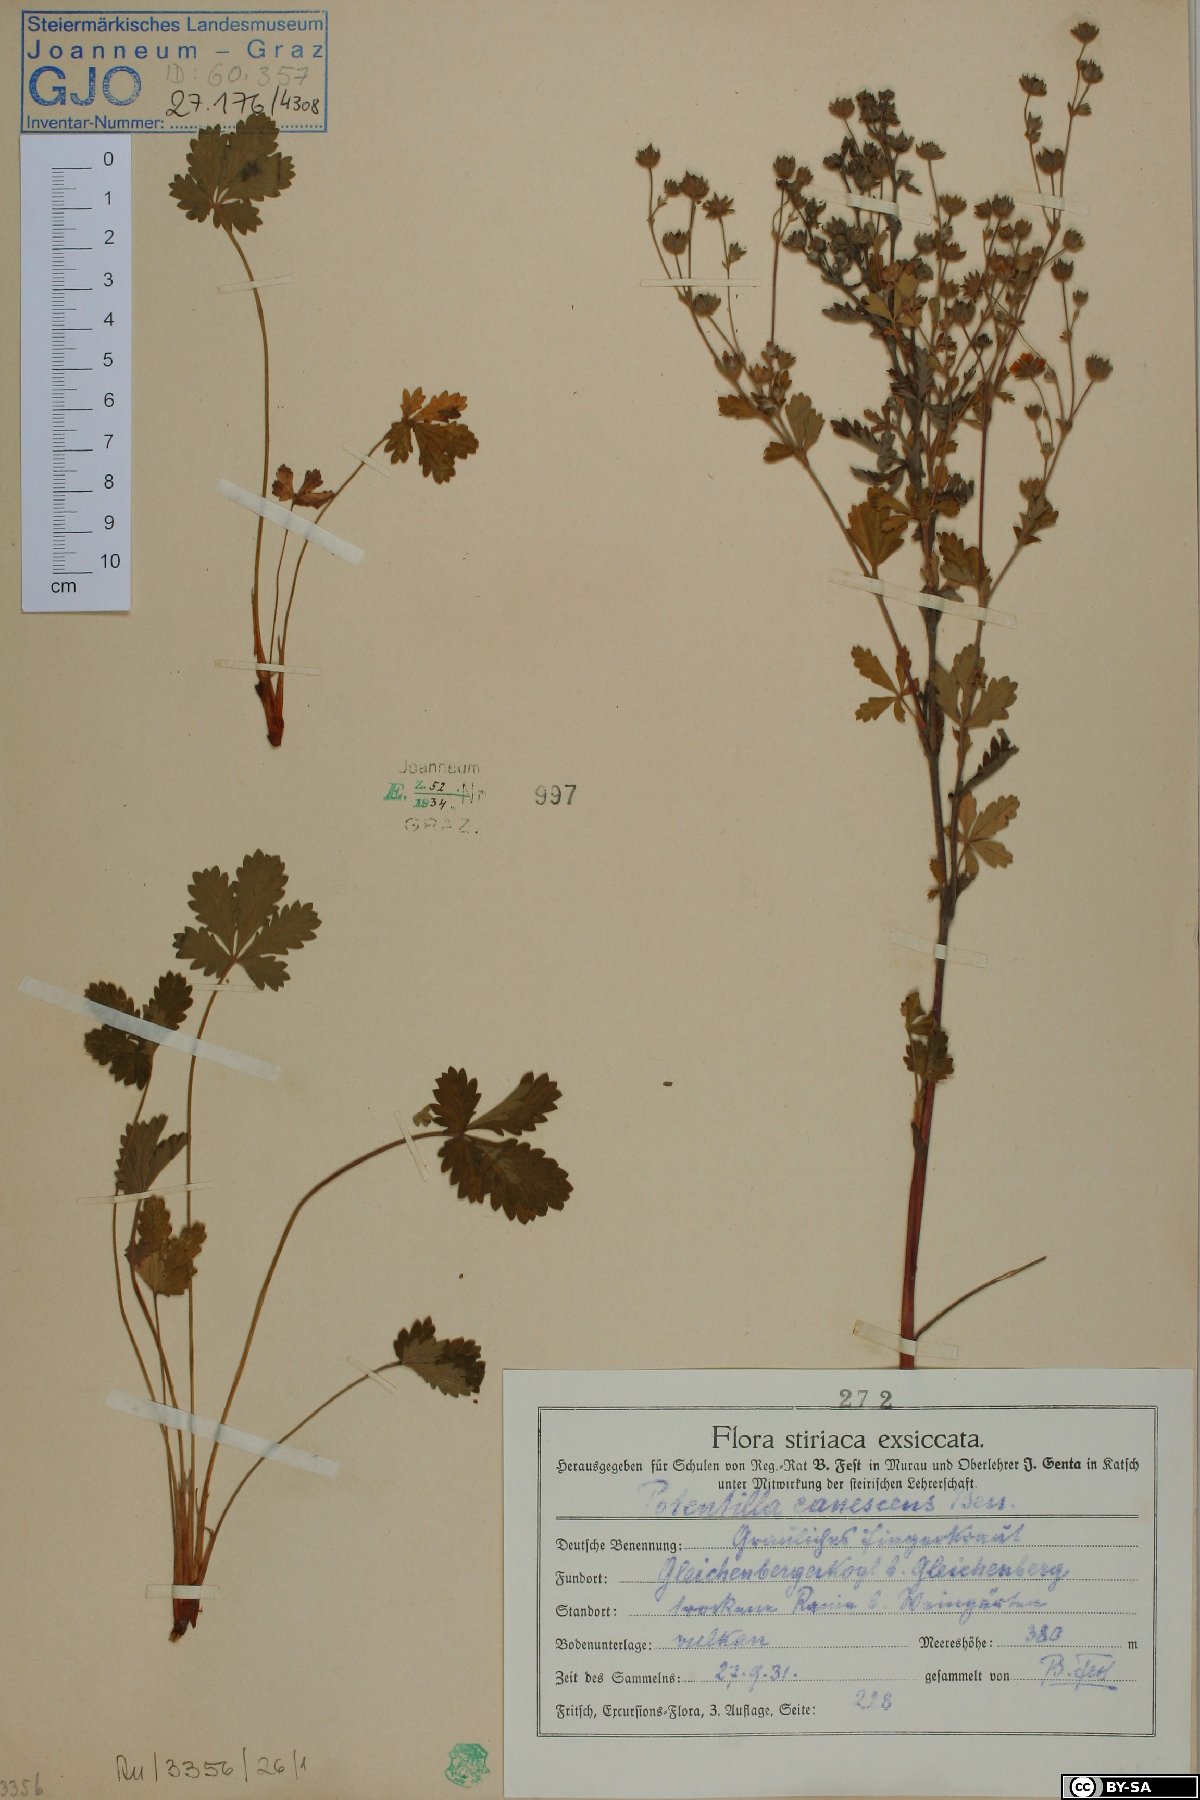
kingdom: Plantae
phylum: Tracheophyta
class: Magnoliopsida
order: Rosales
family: Rosaceae
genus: Potentilla
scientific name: Potentilla inclinata
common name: Grey cinquefoil
